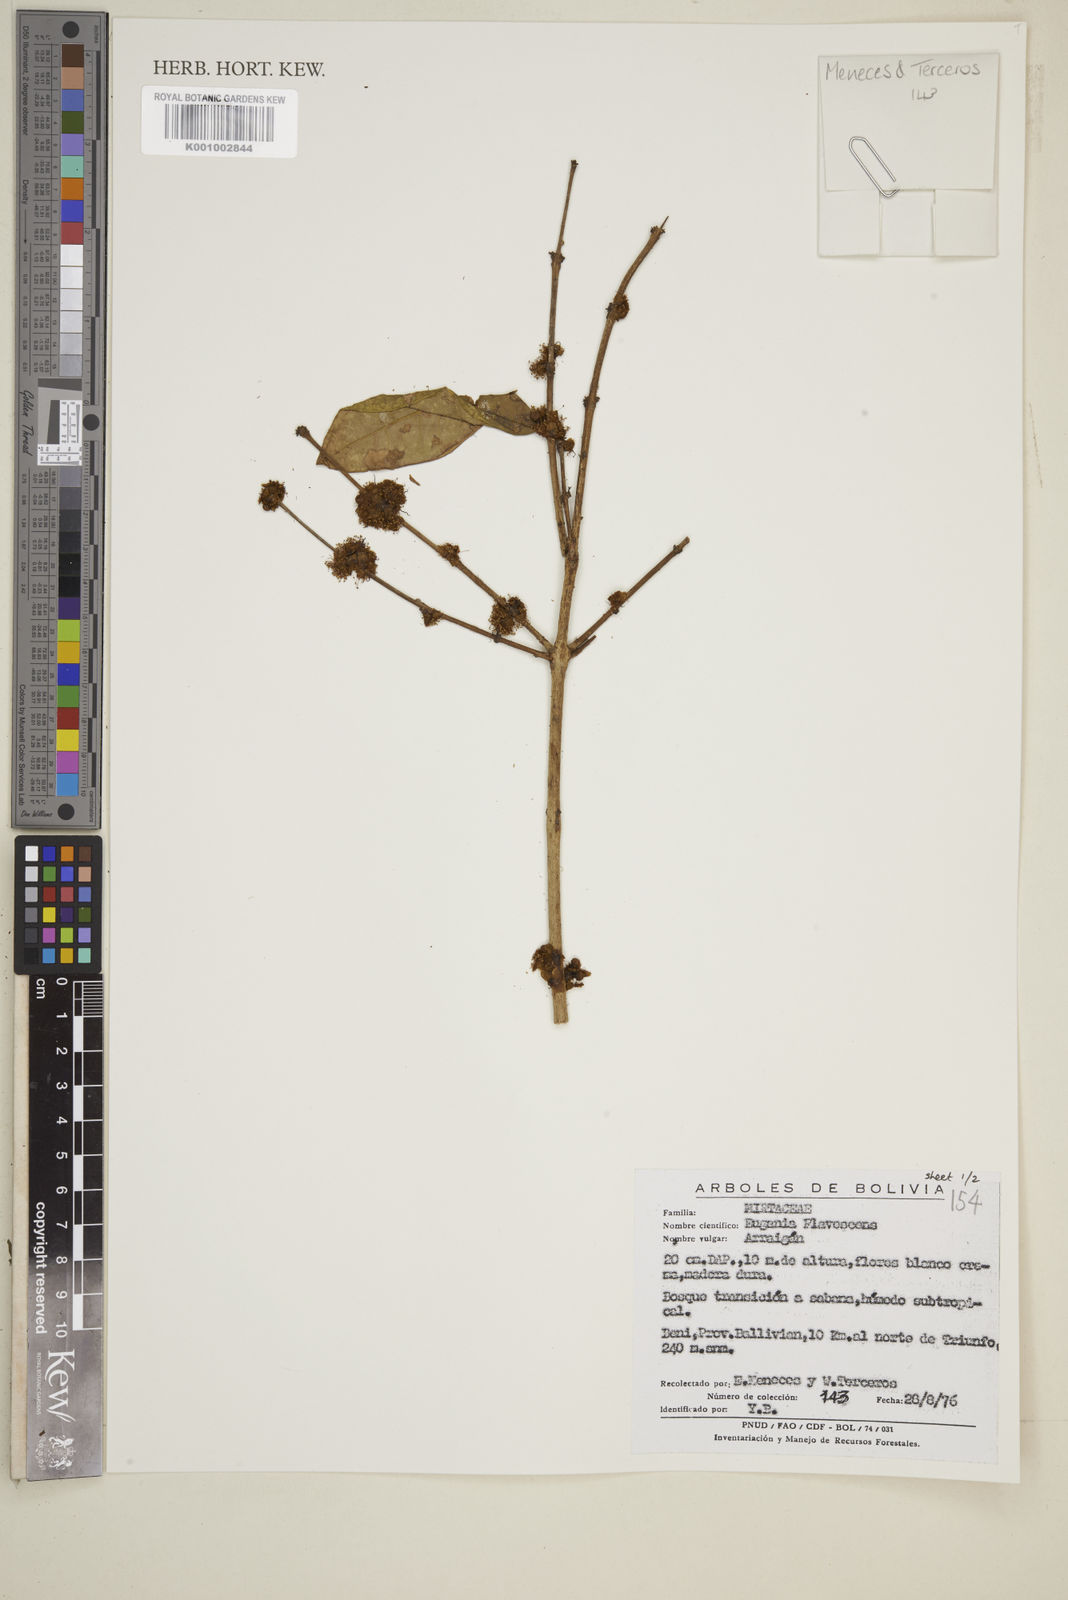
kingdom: Plantae
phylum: Tracheophyta
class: Magnoliopsida
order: Myrtales
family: Myrtaceae
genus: Eugenia
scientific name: Eugenia flavescens
